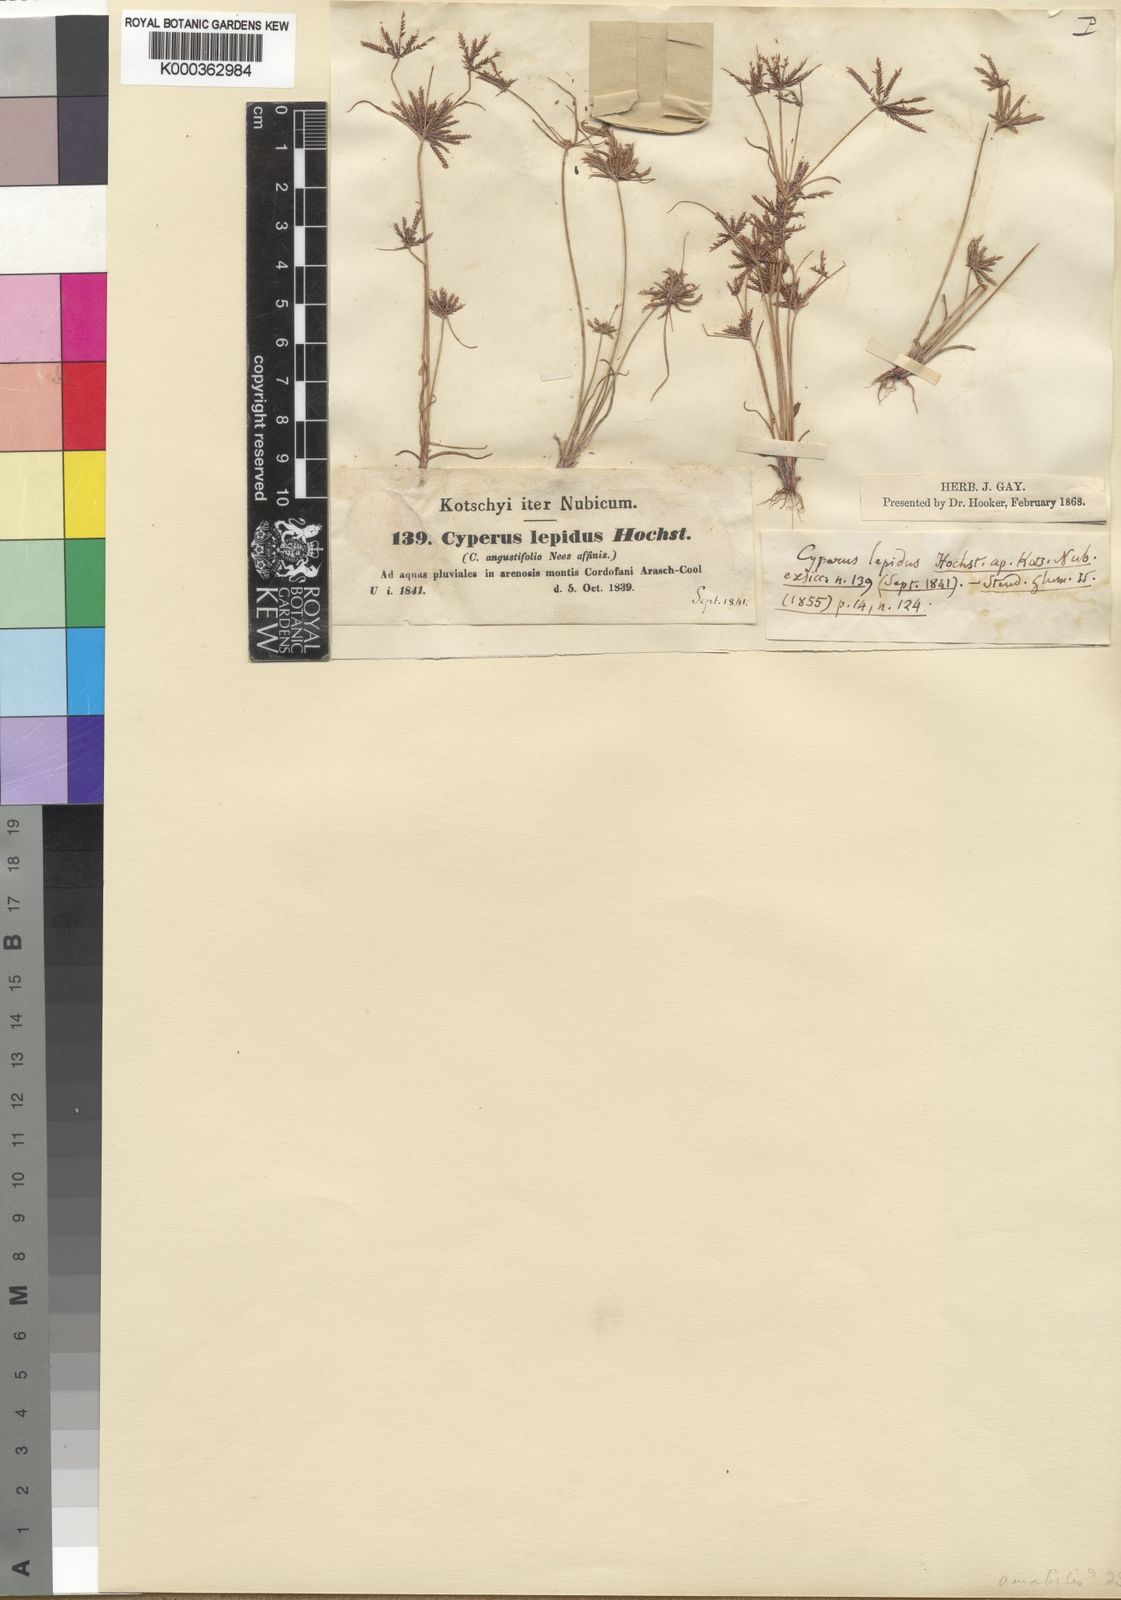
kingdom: Plantae
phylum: Tracheophyta
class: Liliopsida
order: Poales
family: Cyperaceae
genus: Cyperus
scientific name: Cyperus amabilis
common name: Foothill flat sedge
